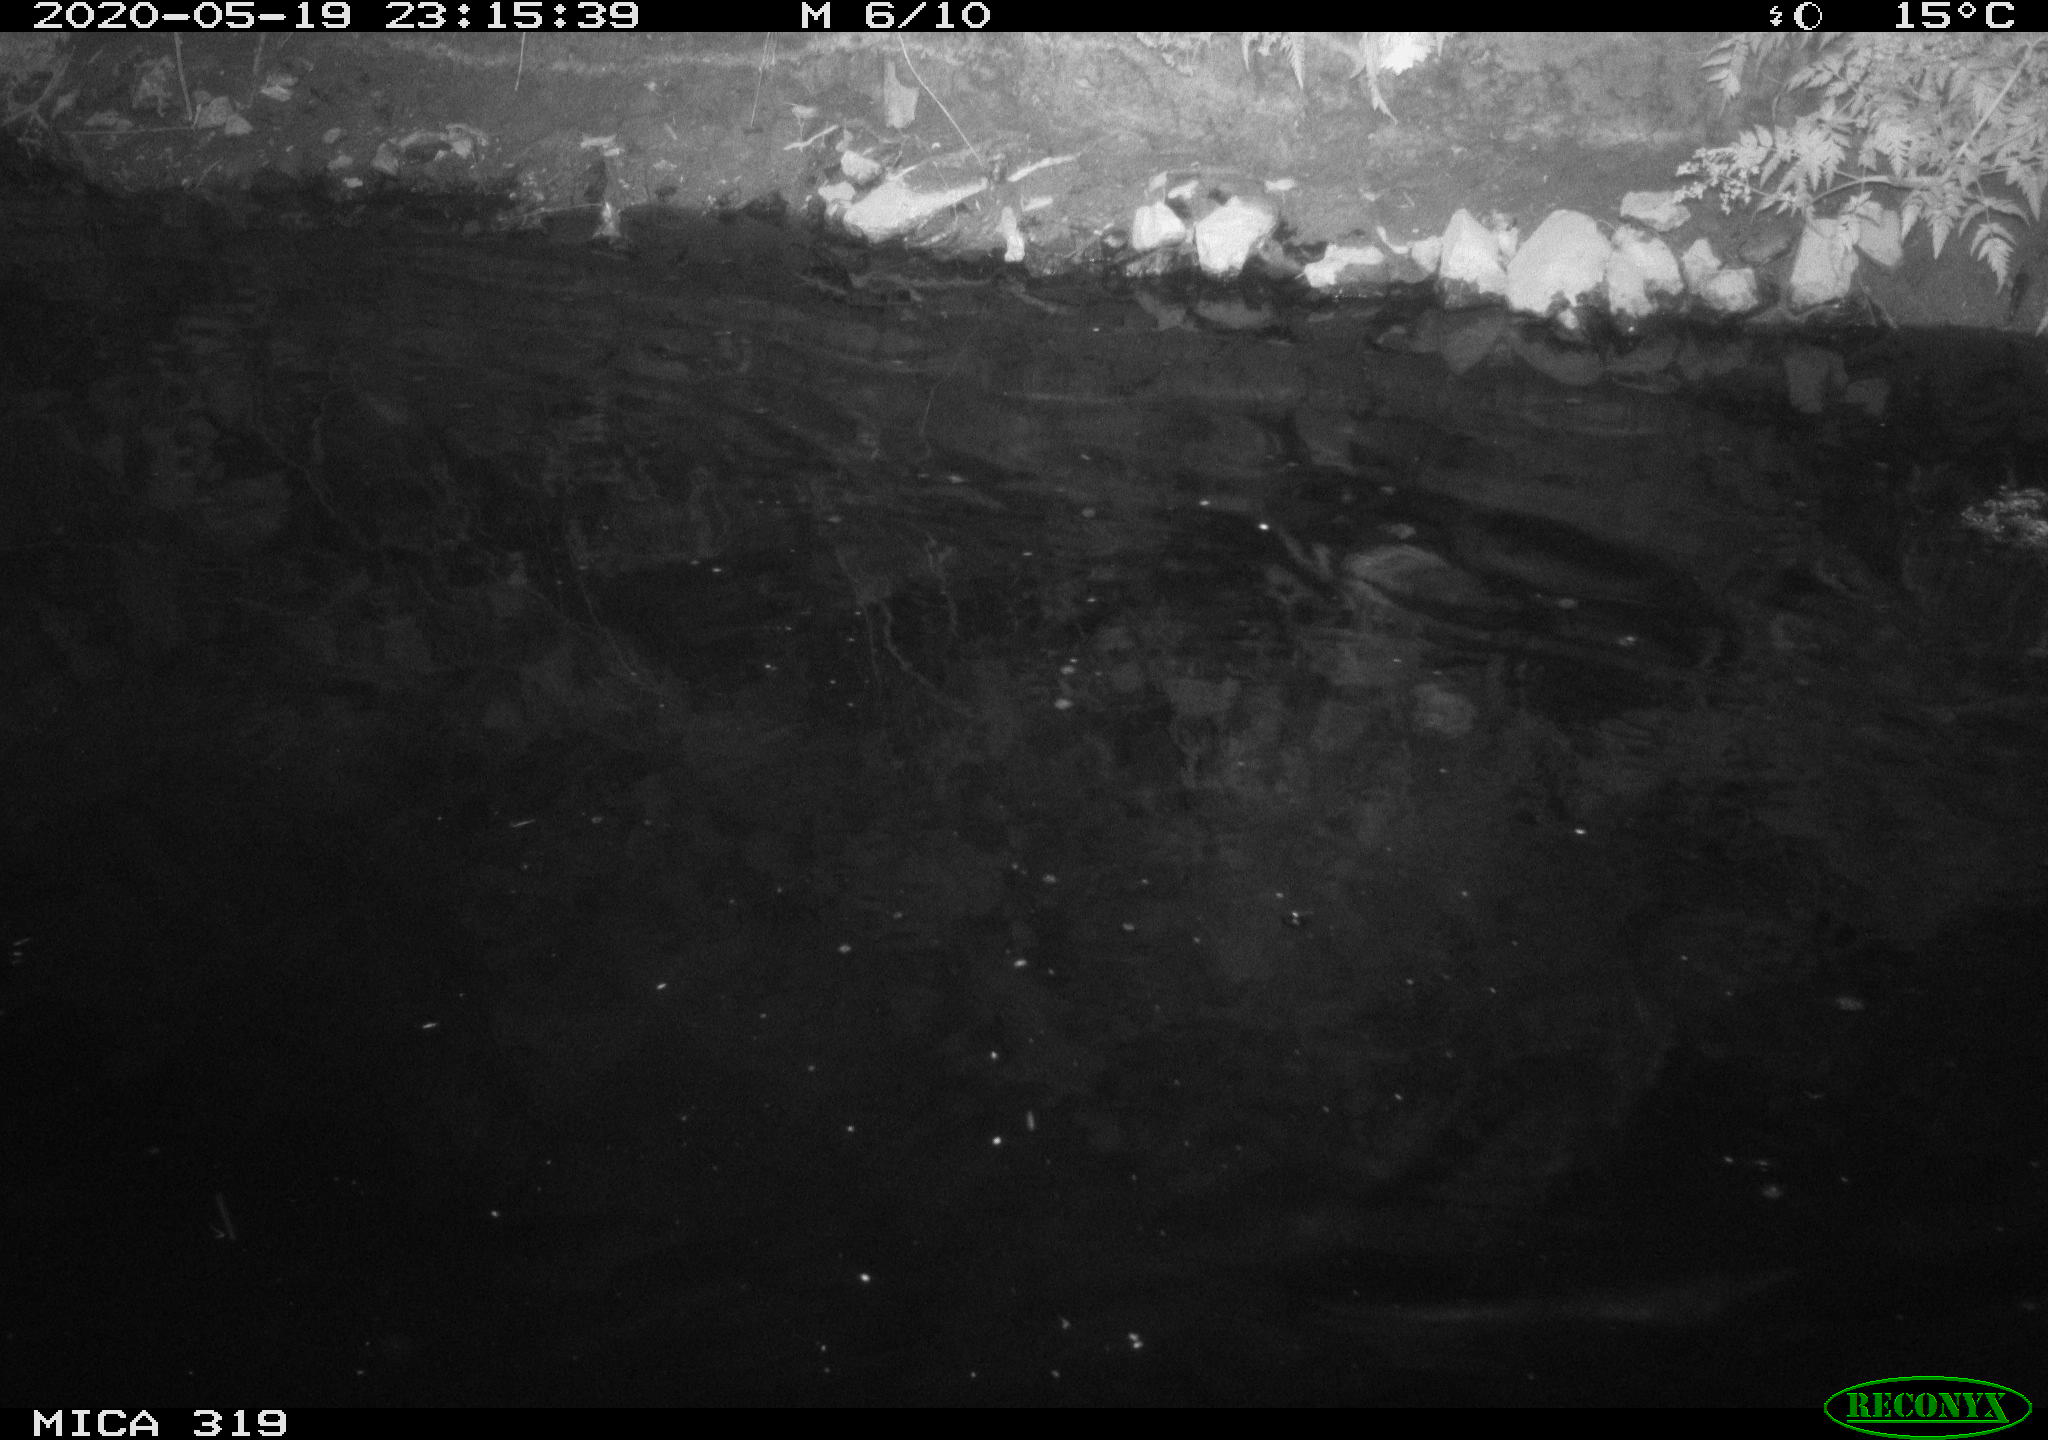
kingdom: Animalia
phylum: Chordata
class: Aves
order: Anseriformes
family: Anatidae
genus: Anas
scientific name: Anas platyrhynchos
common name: Mallard
